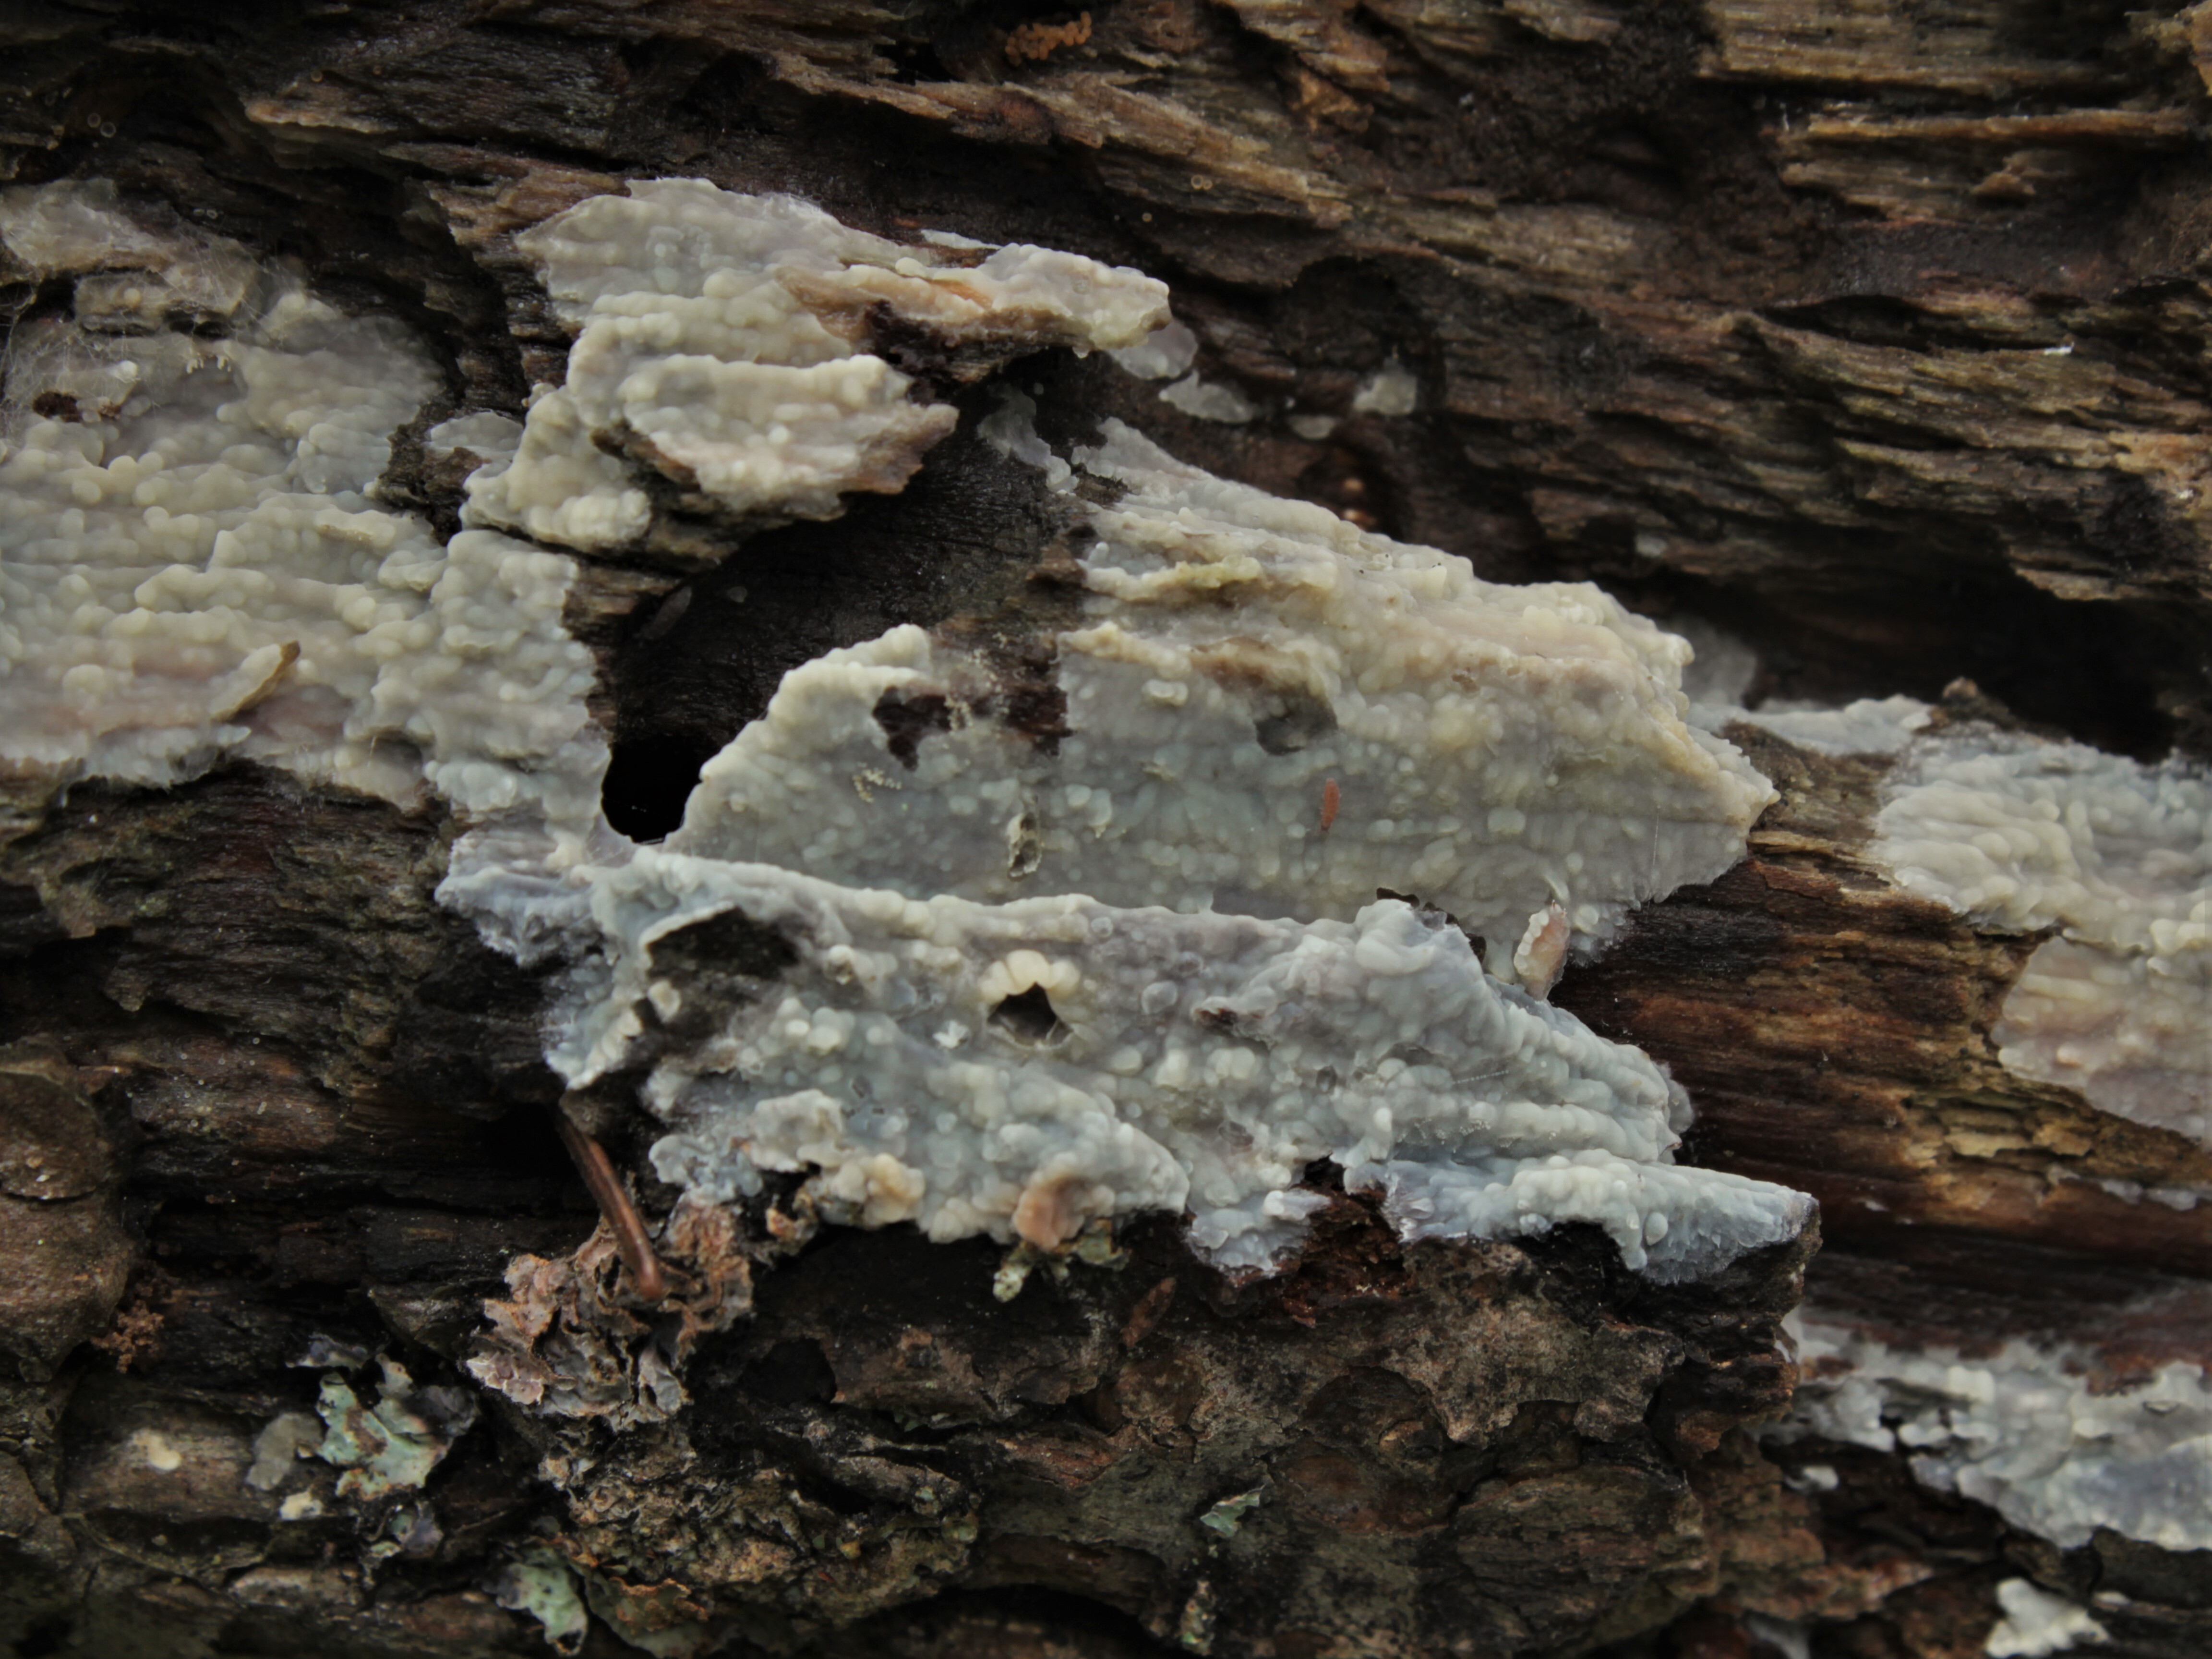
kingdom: Fungi
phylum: Basidiomycota
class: Agaricomycetes
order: Agaricales
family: Radulomycetaceae
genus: Radulomyces
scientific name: Radulomyces confluens
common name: Confluent radulomyces
